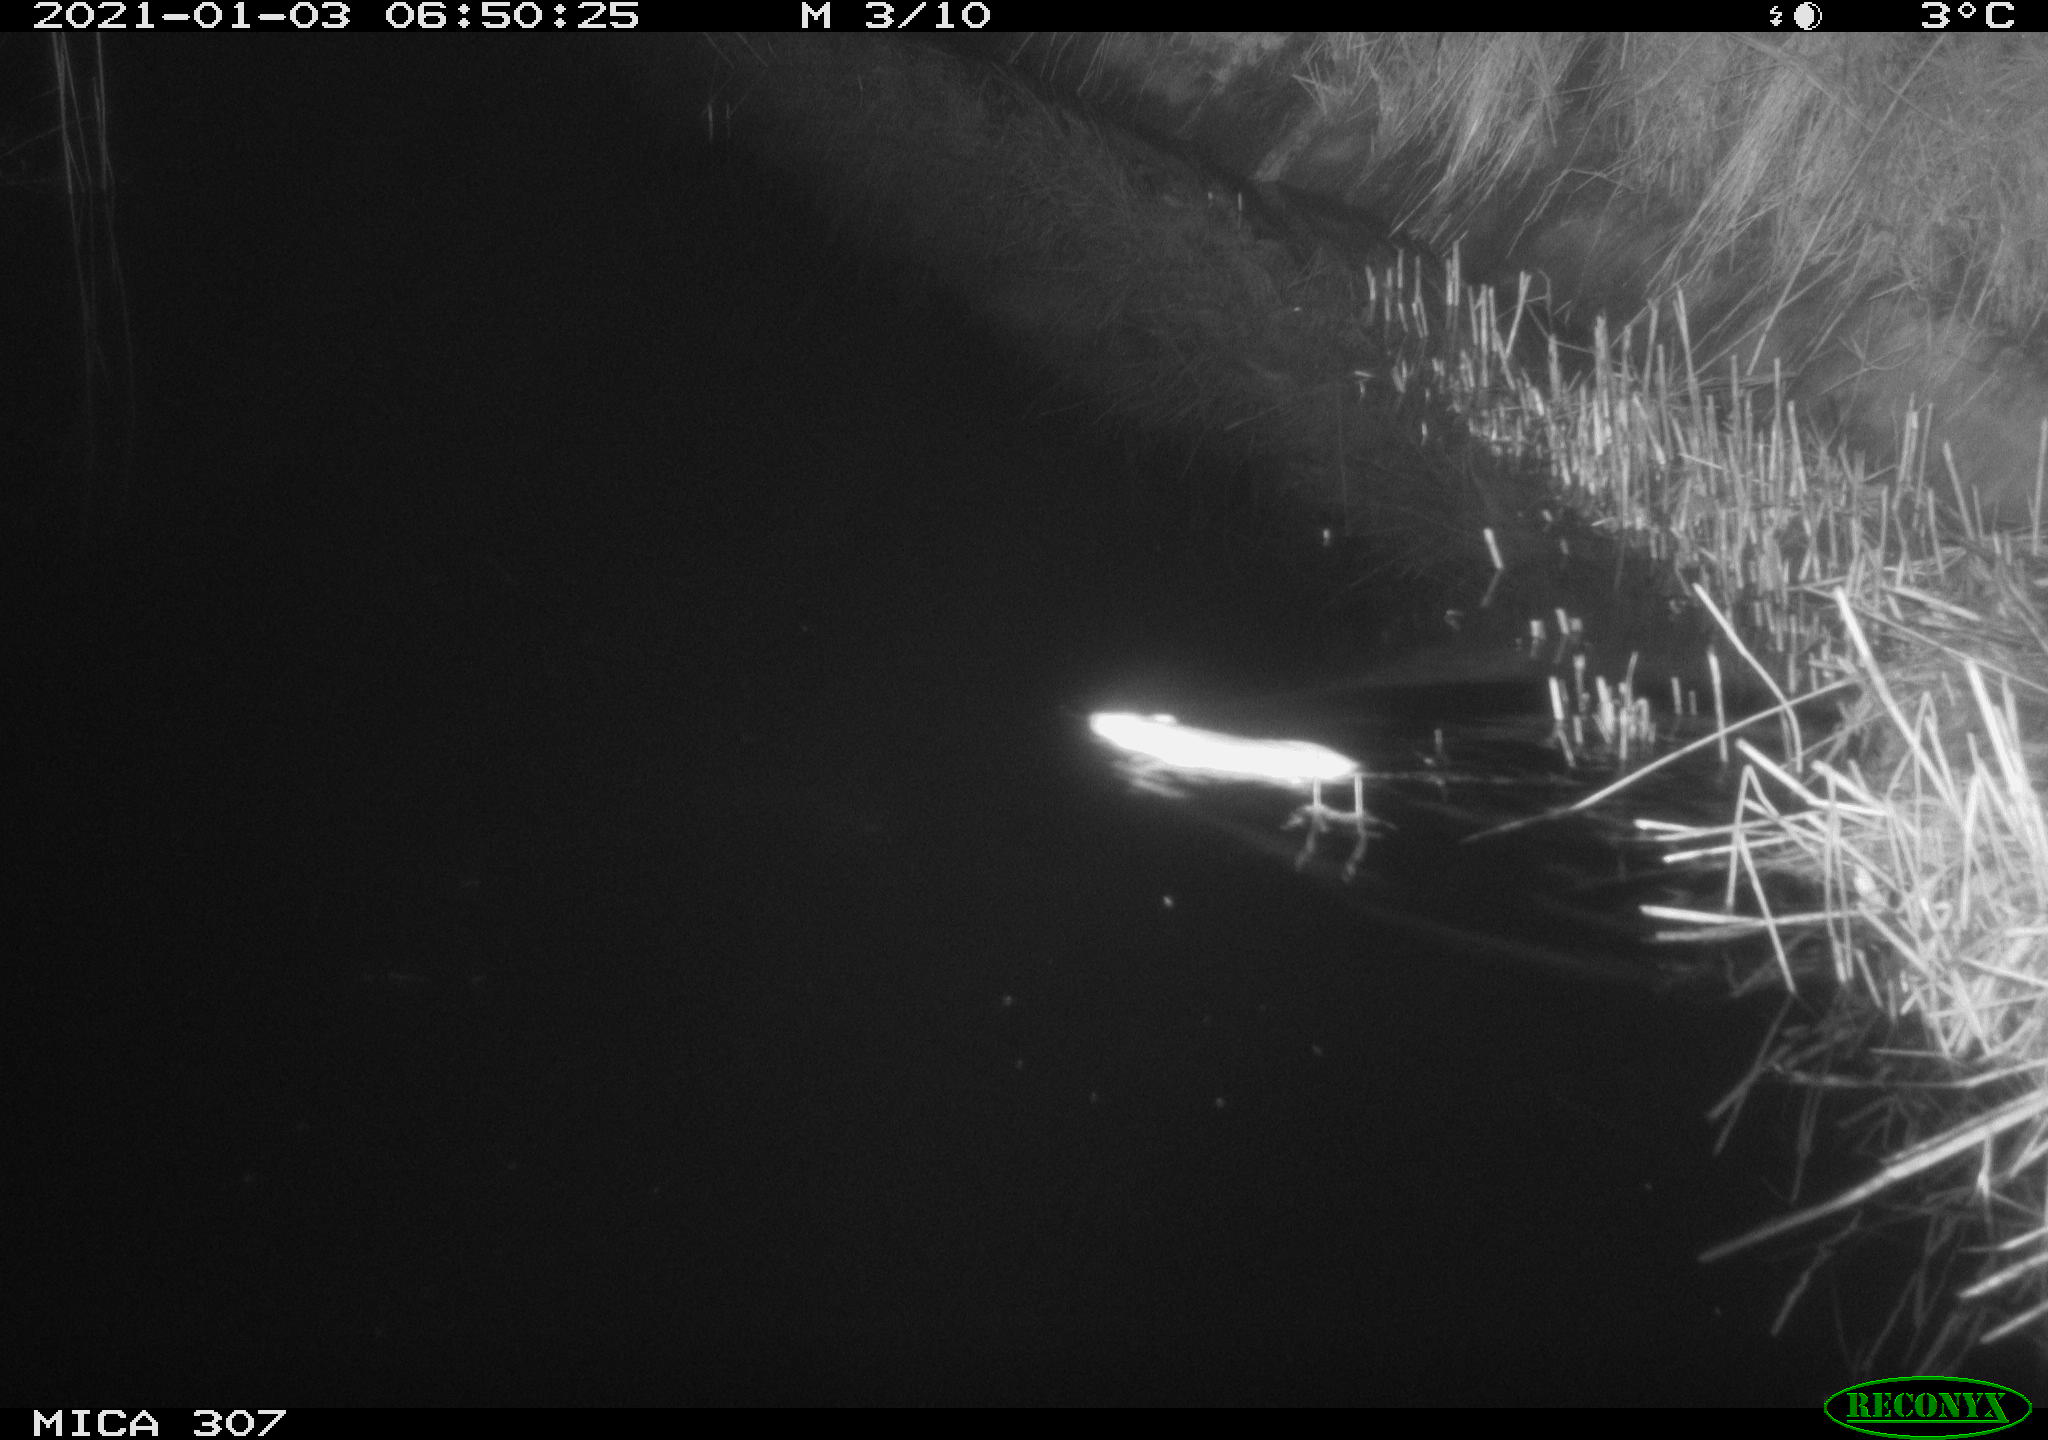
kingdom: Animalia
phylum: Chordata
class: Mammalia
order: Rodentia
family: Muridae
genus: Rattus
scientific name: Rattus norvegicus
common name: Brown rat
